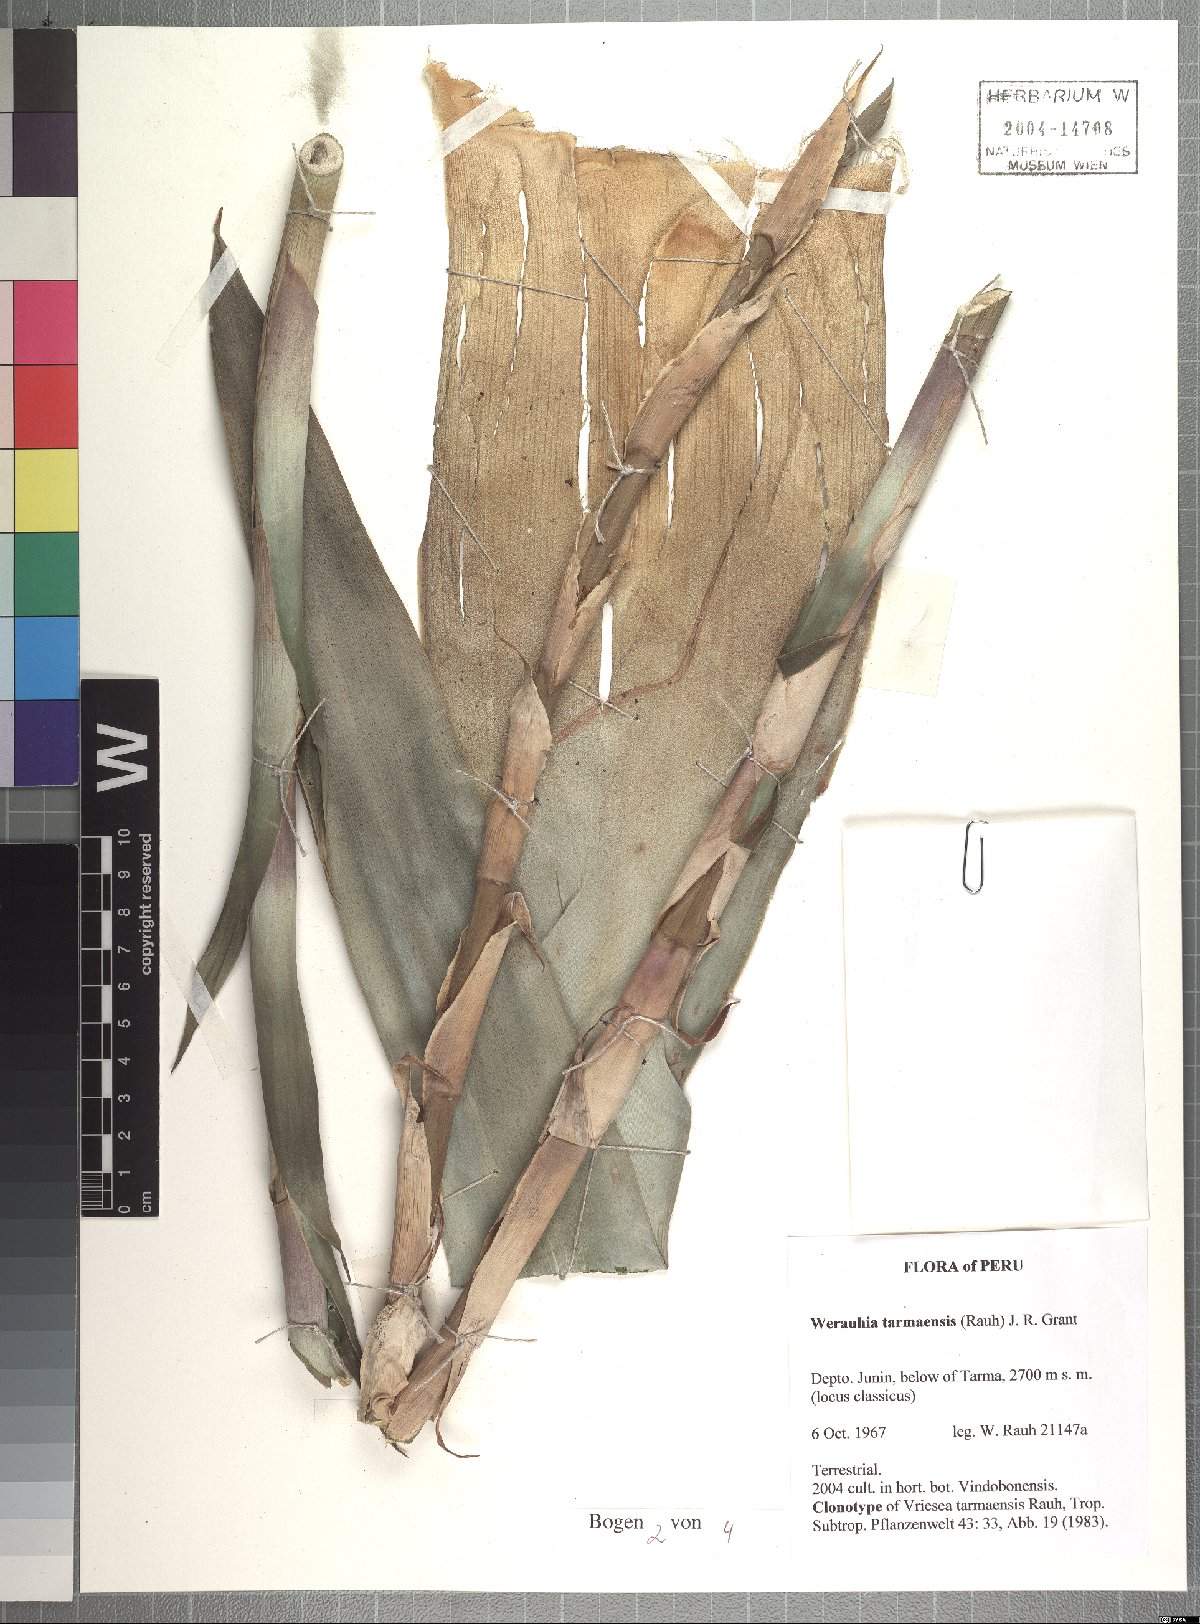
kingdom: Plantae
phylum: Tracheophyta
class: Liliopsida
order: Poales
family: Bromeliaceae
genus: Werauhia
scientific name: Werauhia tarmaensis
